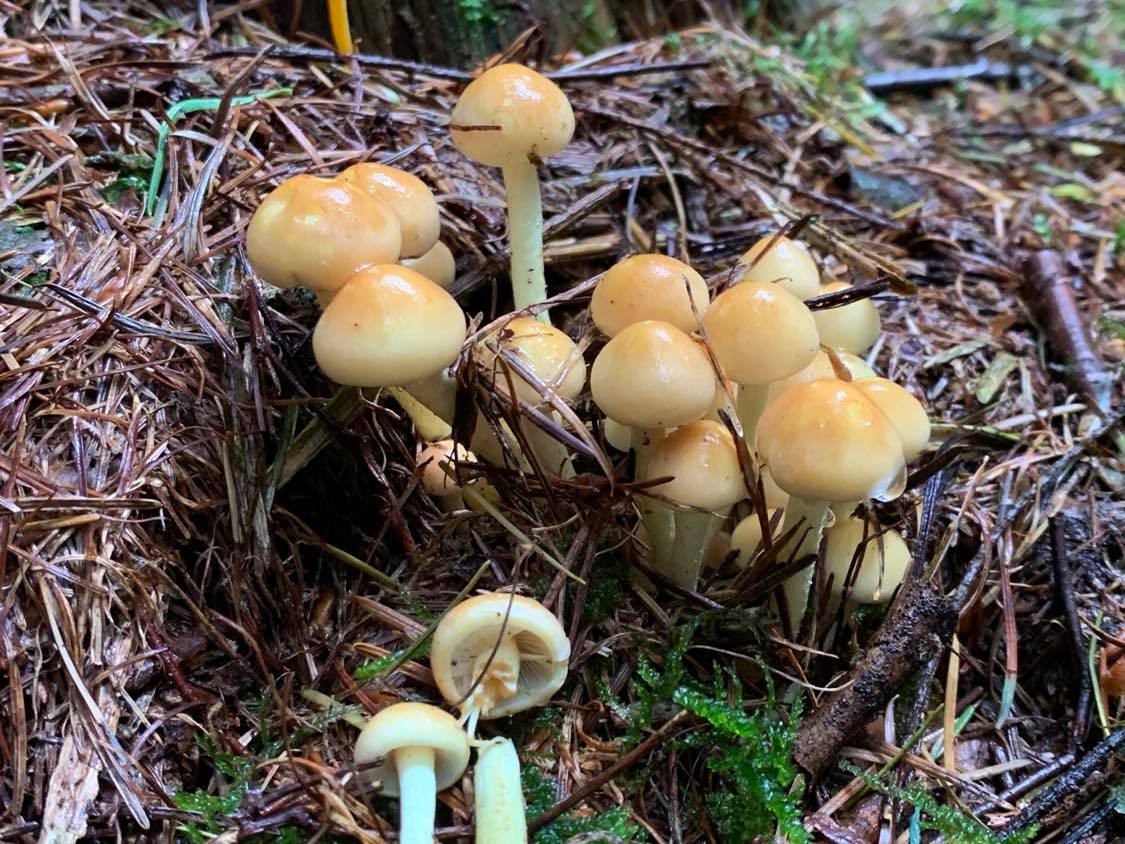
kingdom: Fungi
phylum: Basidiomycota
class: Agaricomycetes
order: Agaricales
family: Strophariaceae
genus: Hypholoma
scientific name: Hypholoma fasciculare
